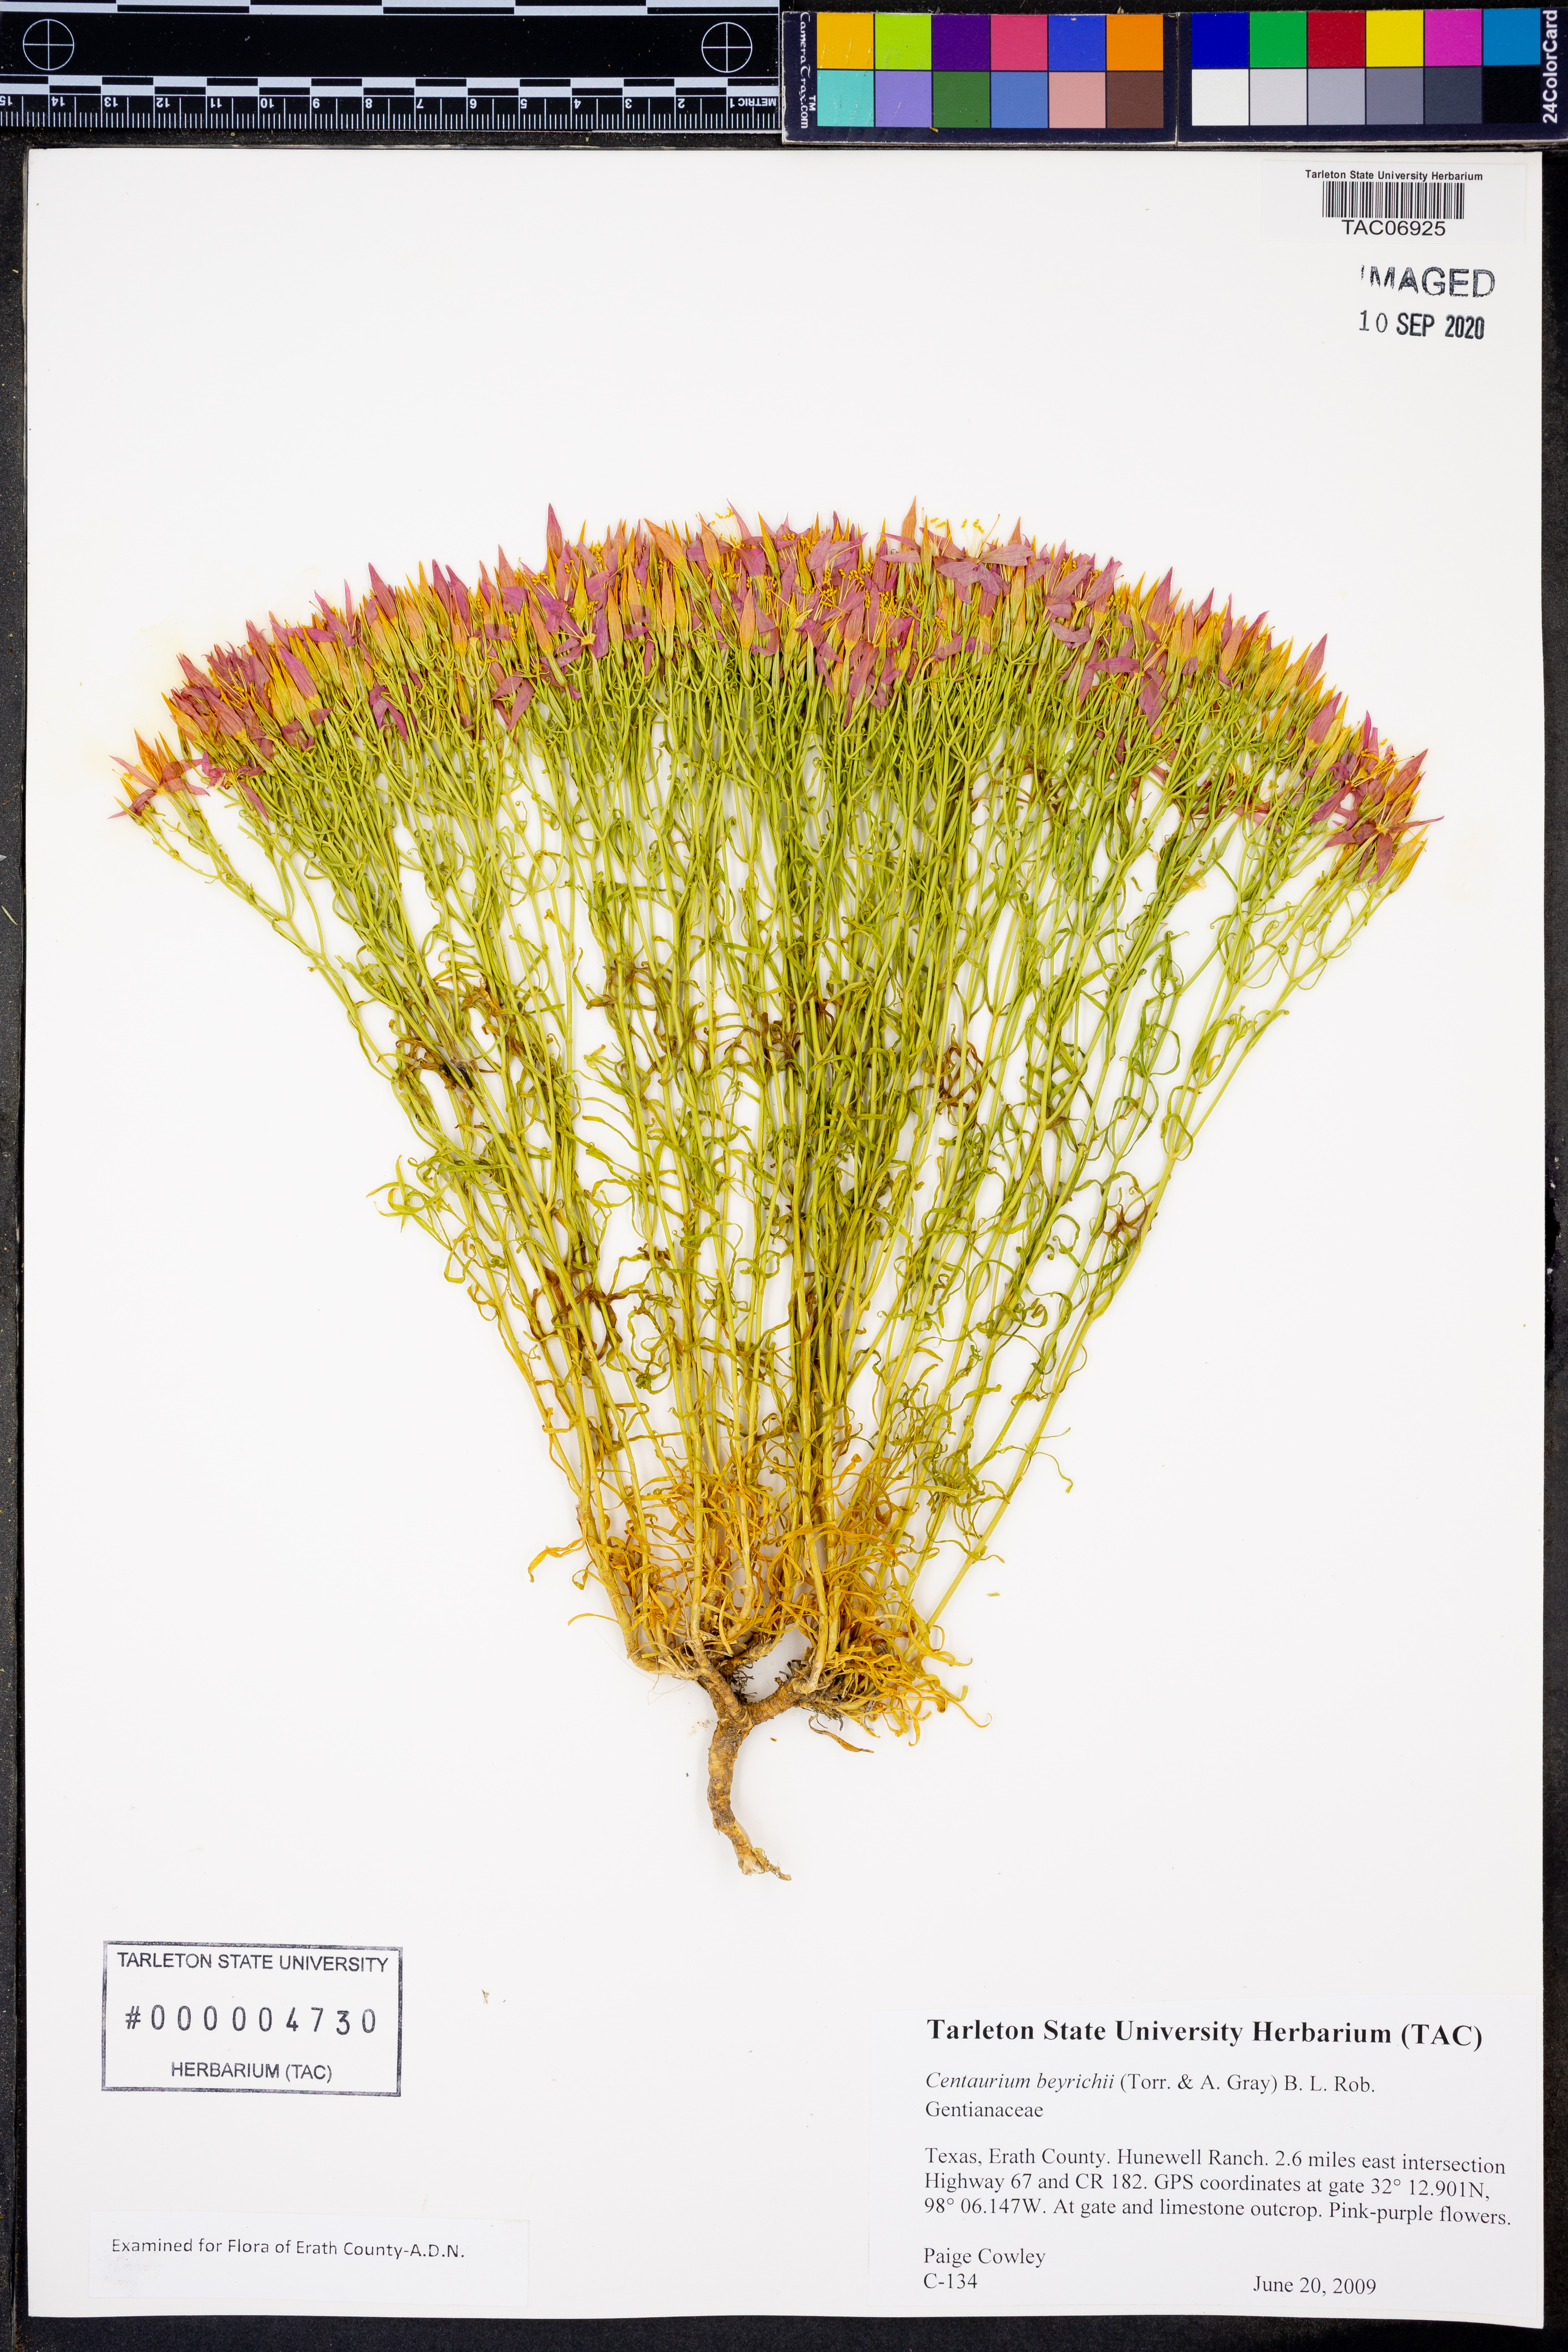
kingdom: Plantae
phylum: Tracheophyta
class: Magnoliopsida
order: Gentianales
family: Gentianaceae
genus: Zeltnera
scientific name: Zeltnera beyrichii
